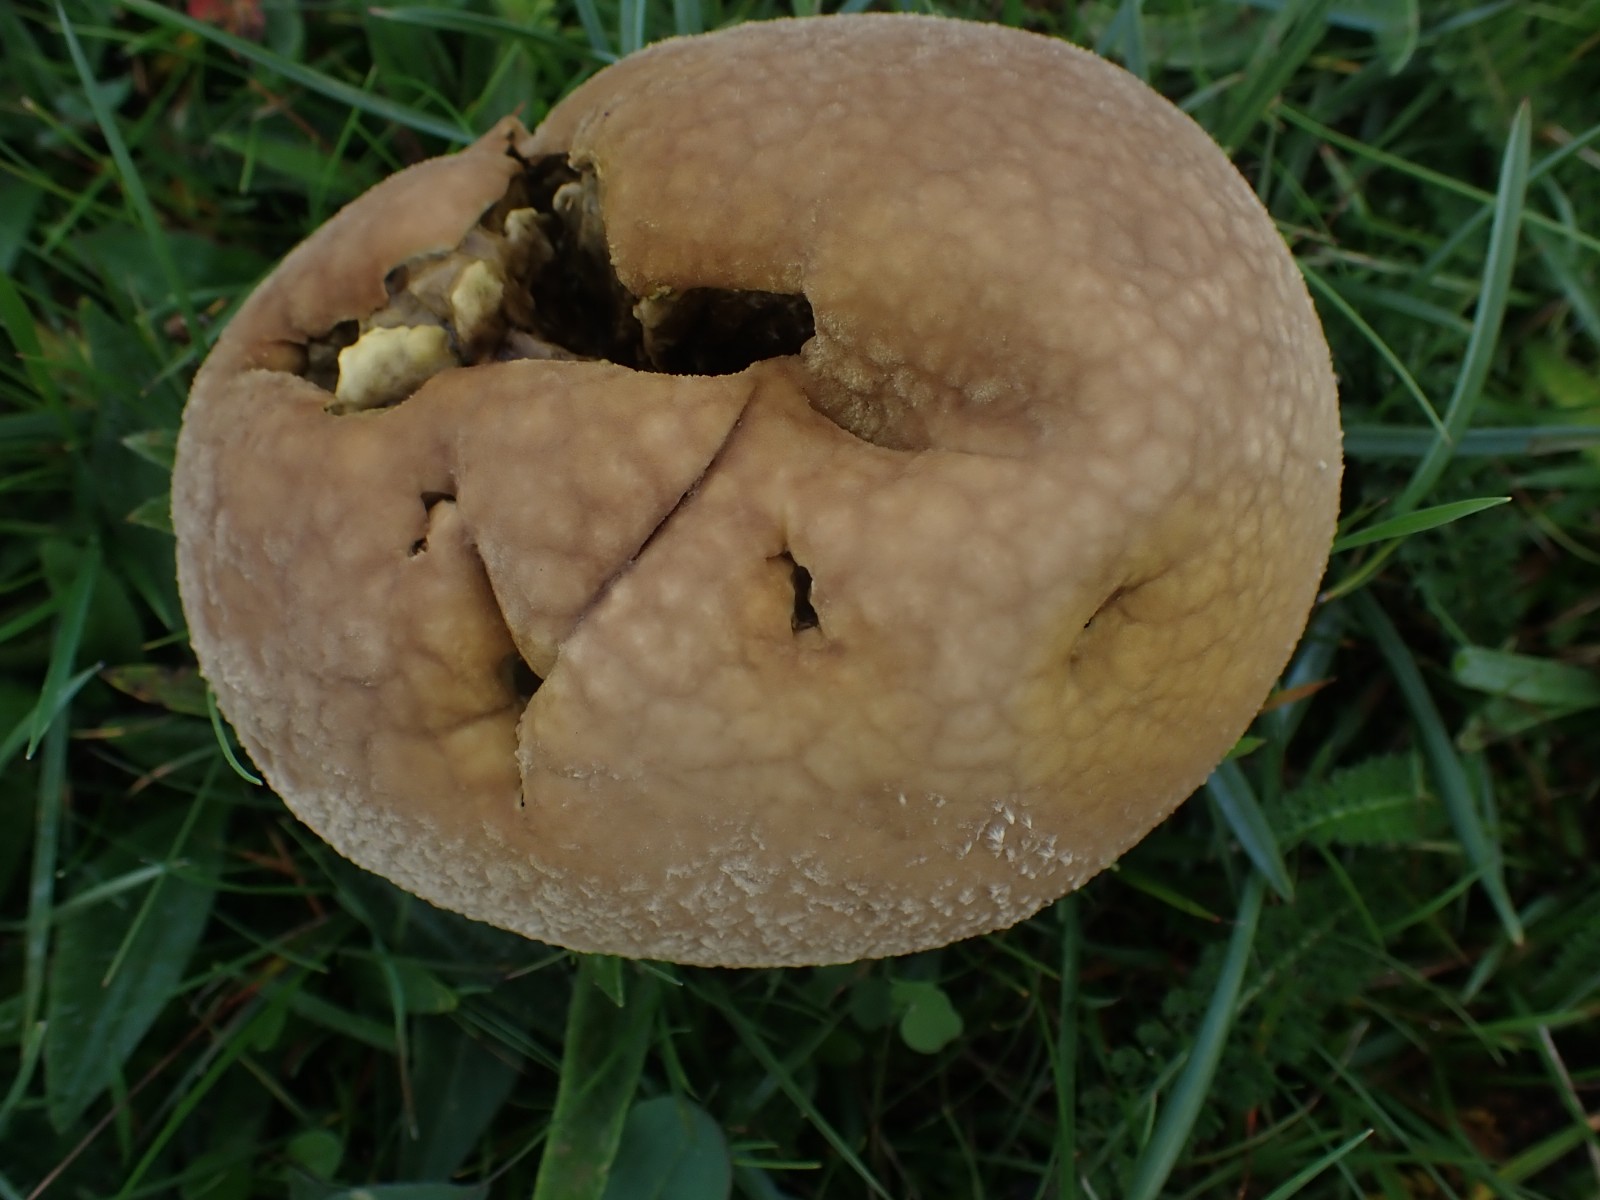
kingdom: Fungi
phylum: Basidiomycota
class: Agaricomycetes
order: Agaricales
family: Lycoperdaceae
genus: Bovistella
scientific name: Bovistella utriformis
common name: skællet støvbold
